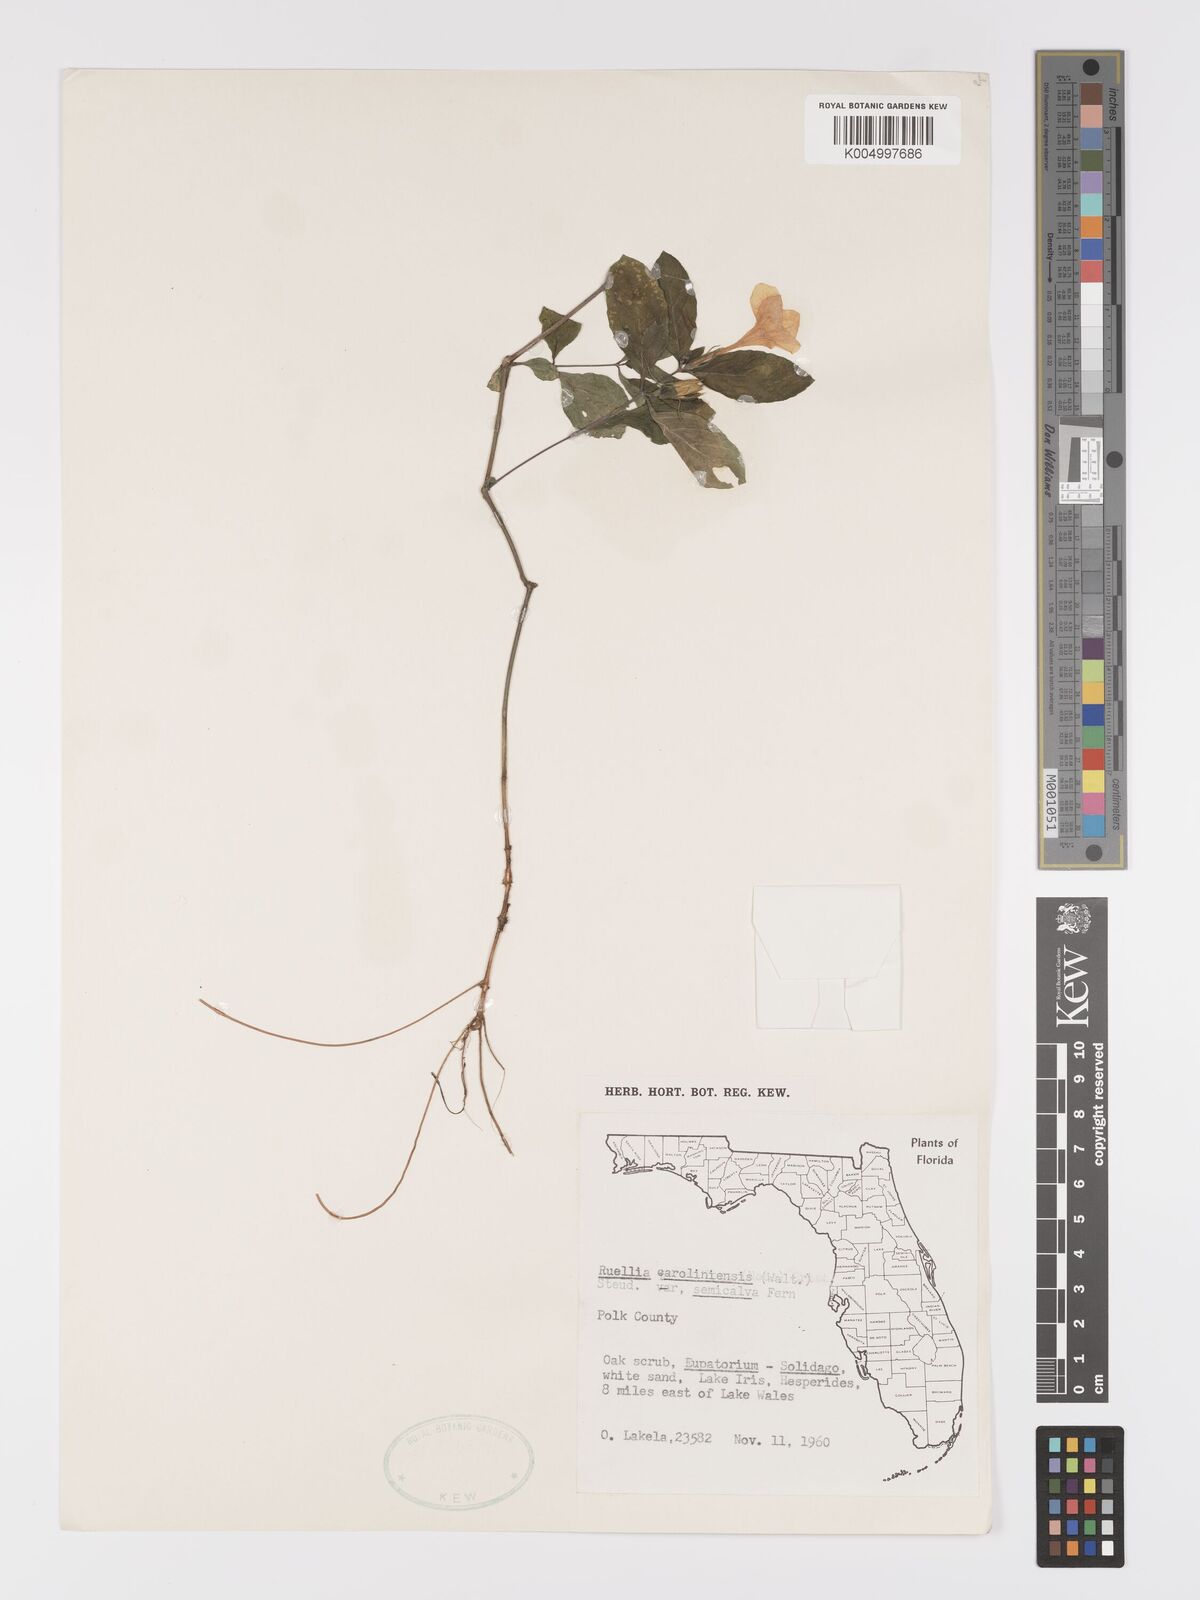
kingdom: Plantae
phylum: Tracheophyta
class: Magnoliopsida
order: Lamiales
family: Acanthaceae
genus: Ruellia
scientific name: Ruellia caroliniensis
